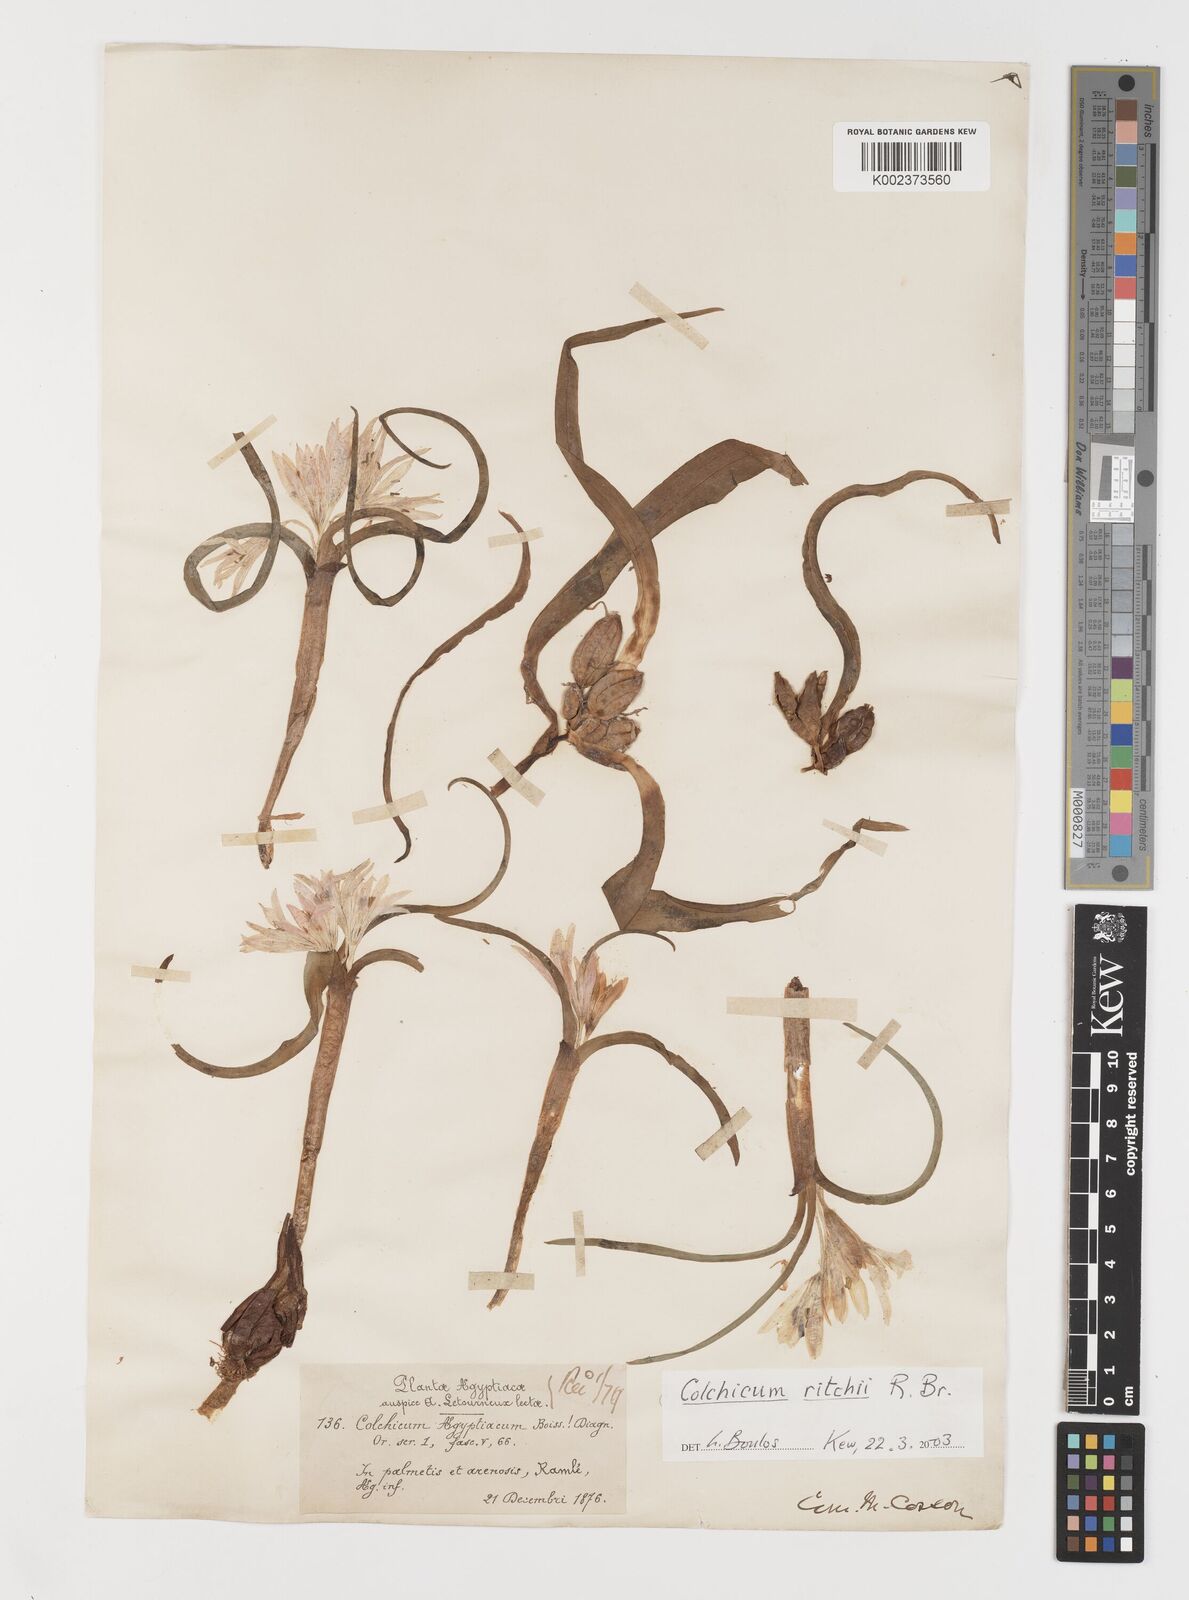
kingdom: Plantae
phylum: Tracheophyta
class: Liliopsida
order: Liliales
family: Colchicaceae
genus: Colchicum
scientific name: Colchicum ritchii
